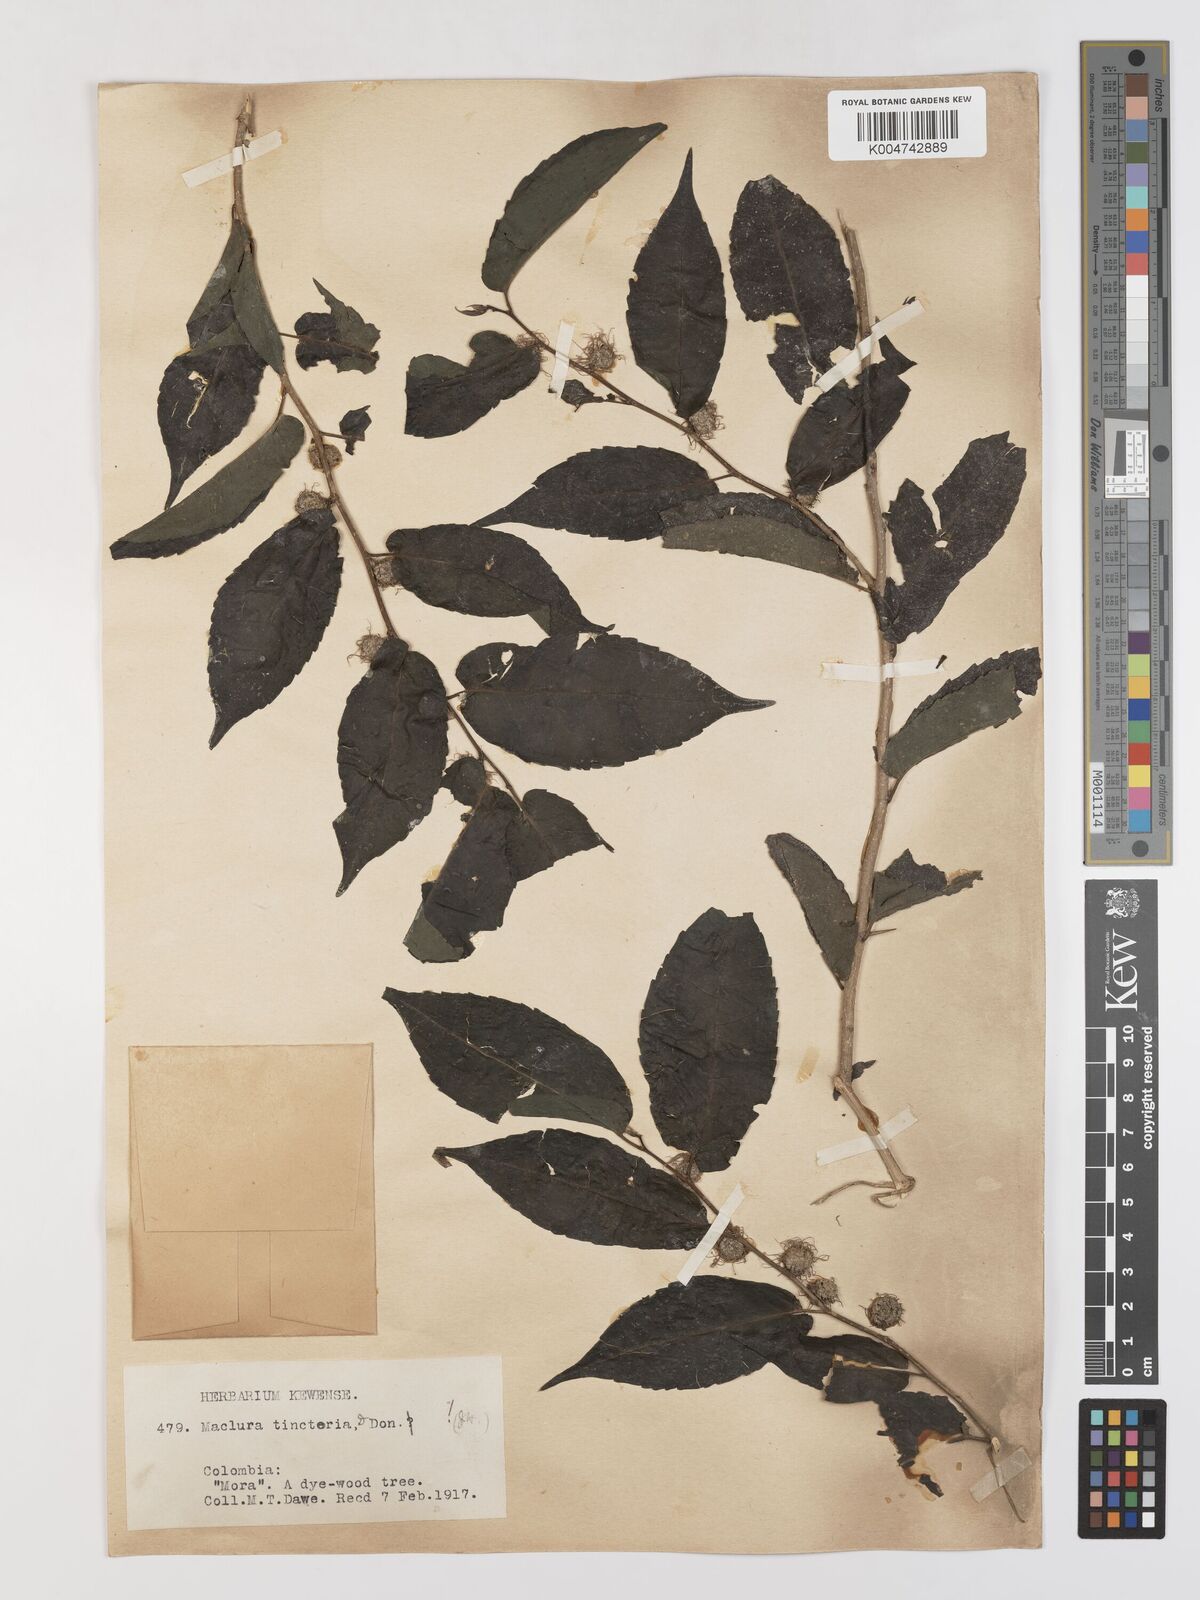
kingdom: Plantae
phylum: Tracheophyta
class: Magnoliopsida
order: Rosales
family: Moraceae
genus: Maclura
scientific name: Maclura tinctoria
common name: Old fustic
